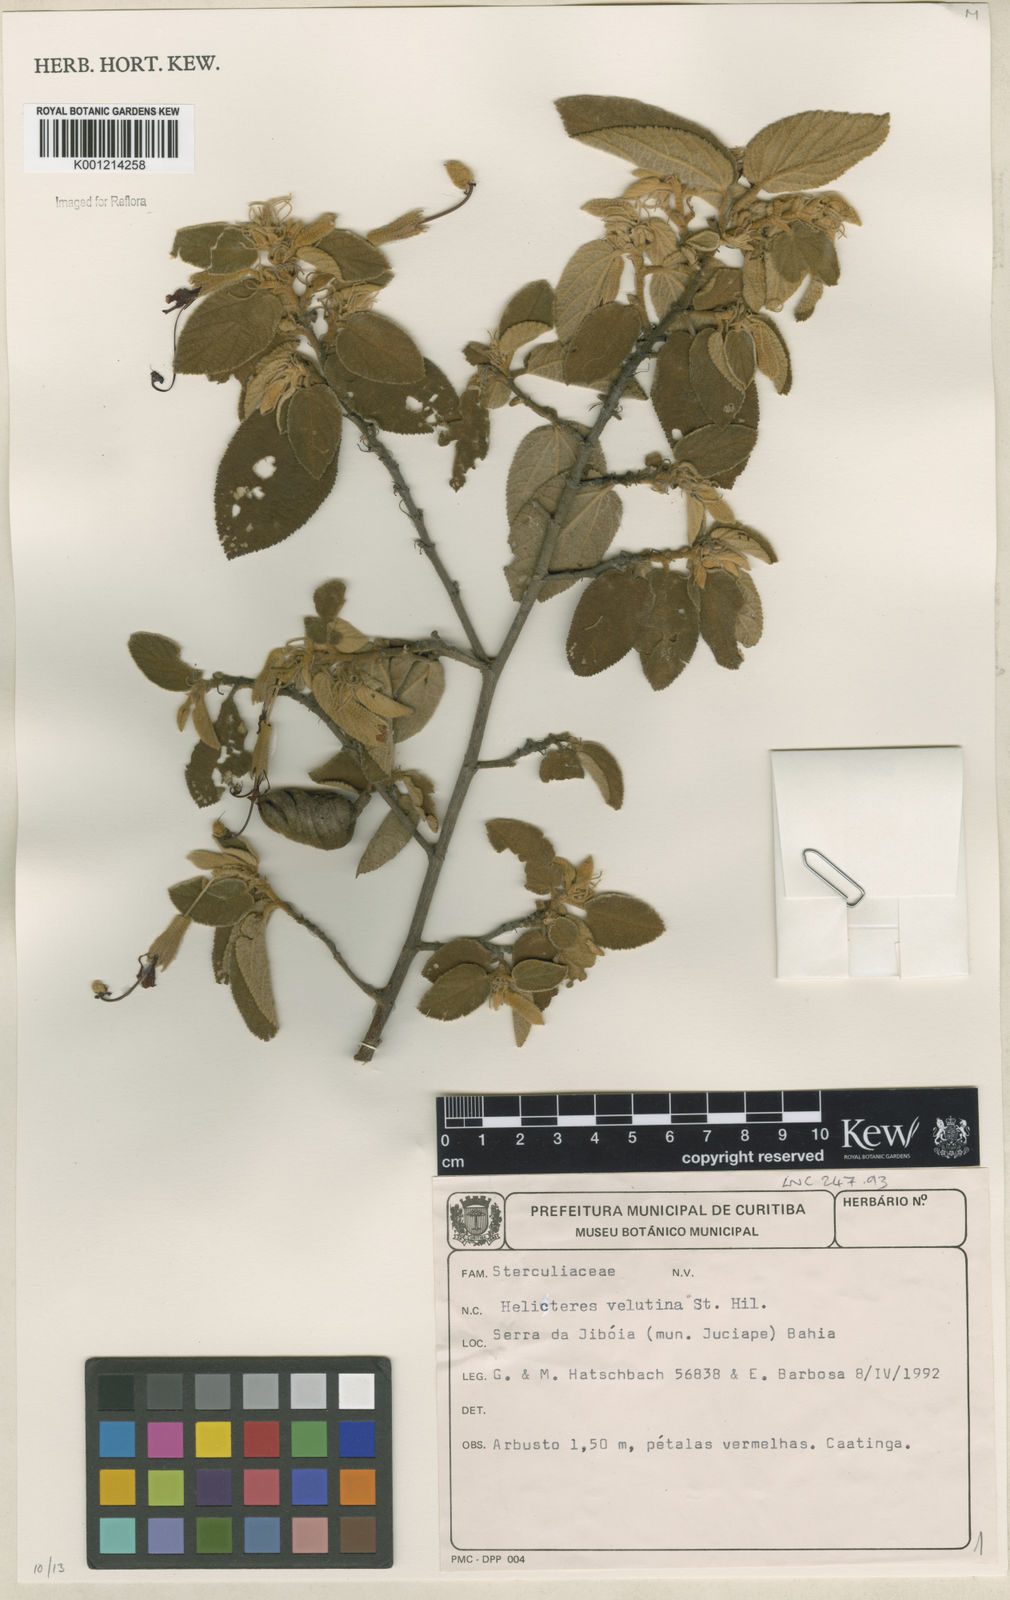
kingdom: Plantae
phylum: Tracheophyta
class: Magnoliopsida
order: Malvales
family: Malvaceae
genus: Helicteres
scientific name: Helicteres velutina
